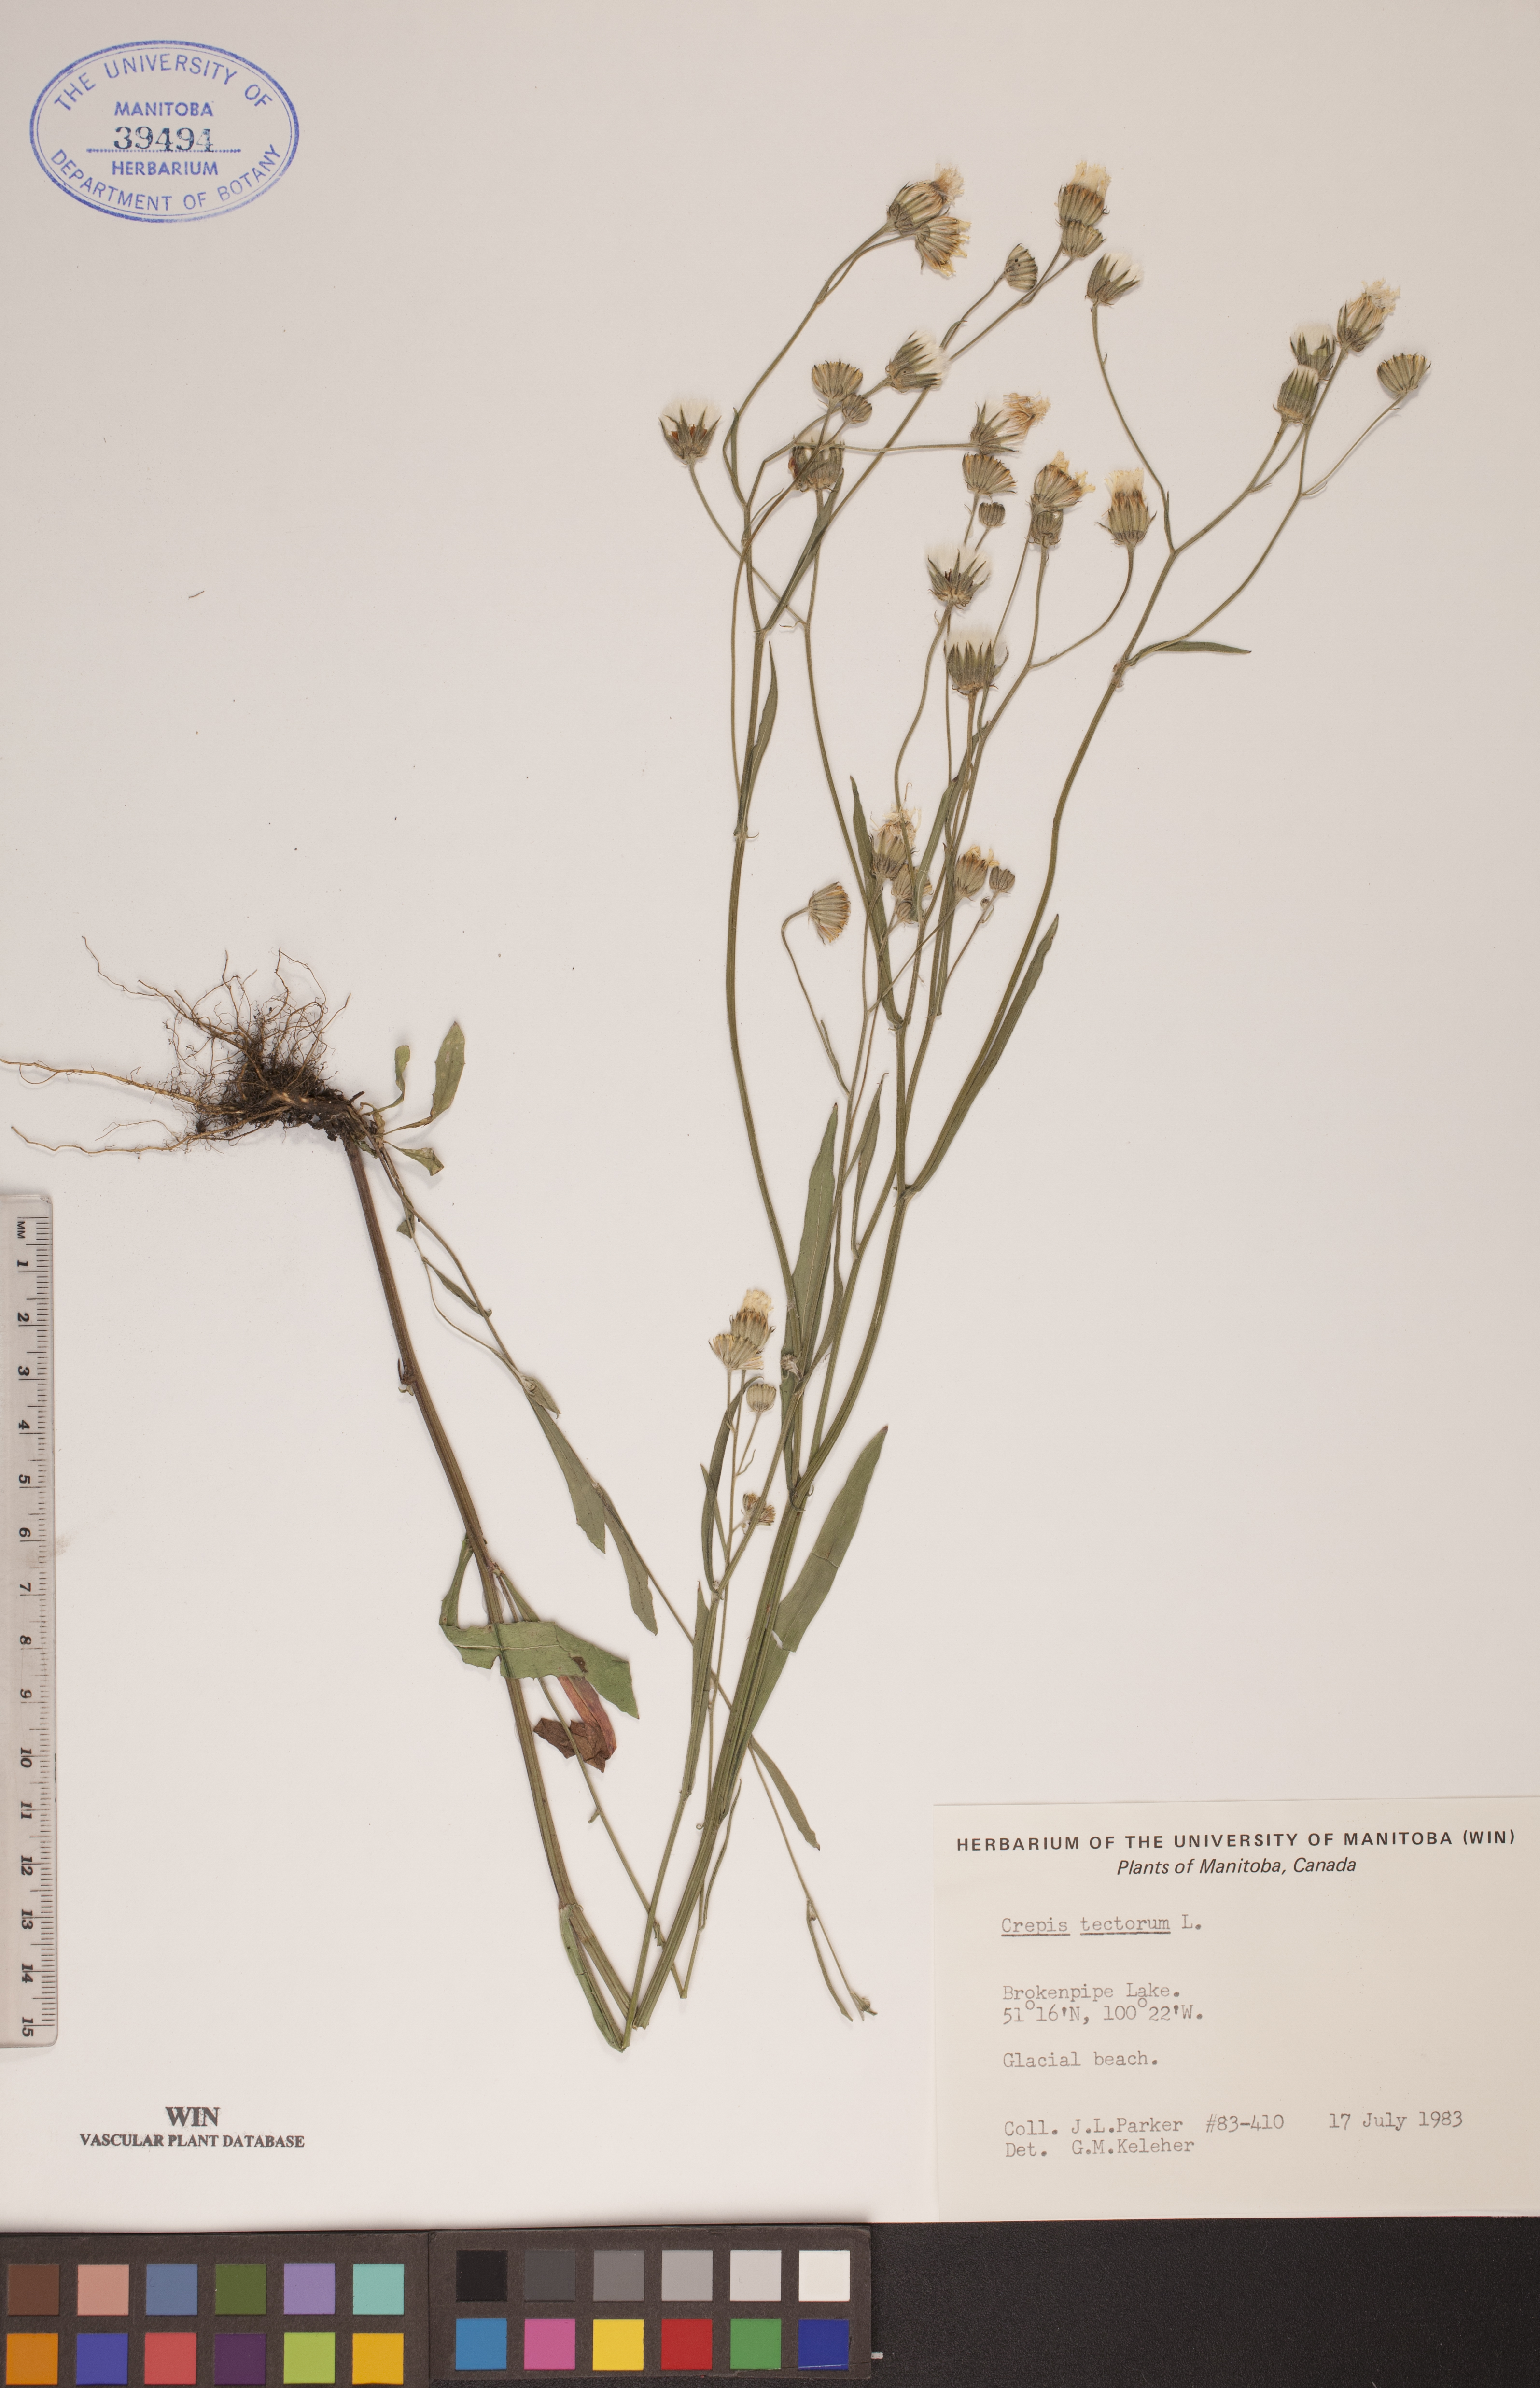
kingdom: Plantae
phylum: Tracheophyta
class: Magnoliopsida
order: Asterales
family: Asteraceae
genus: Crepis
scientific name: Crepis tectorum
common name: Narrow-leaved hawk's-beard
